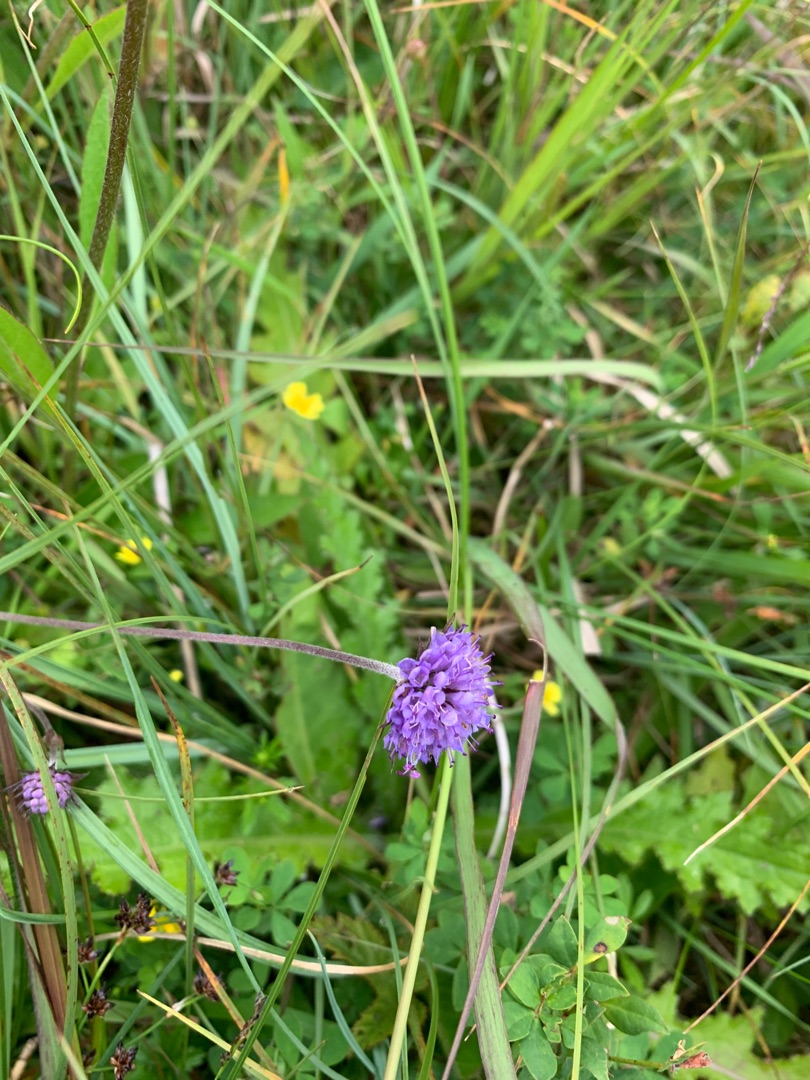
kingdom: Plantae
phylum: Tracheophyta
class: Magnoliopsida
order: Dipsacales
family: Caprifoliaceae
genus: Succisa
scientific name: Succisa pratensis
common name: Djævelsbid
